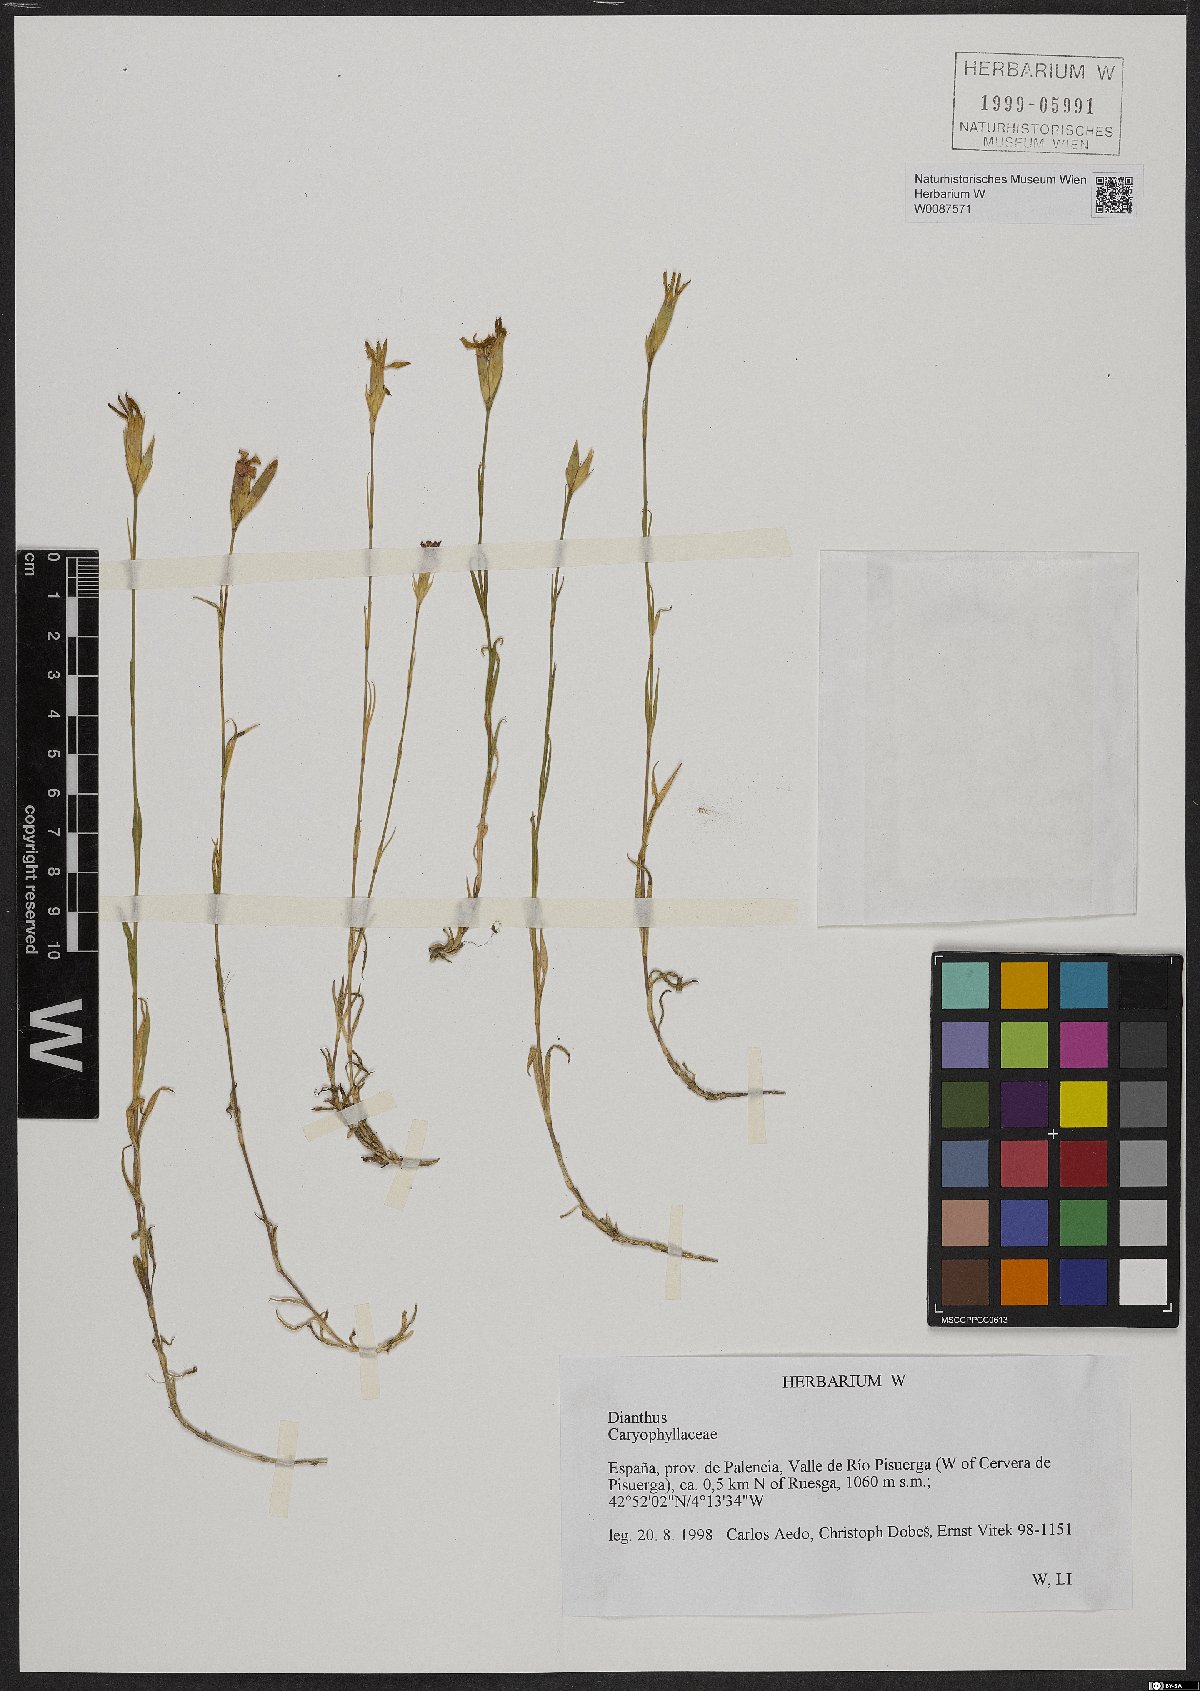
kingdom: Plantae
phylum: Tracheophyta
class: Magnoliopsida
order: Caryophyllales
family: Caryophyllaceae
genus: Dianthus
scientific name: Dianthus
